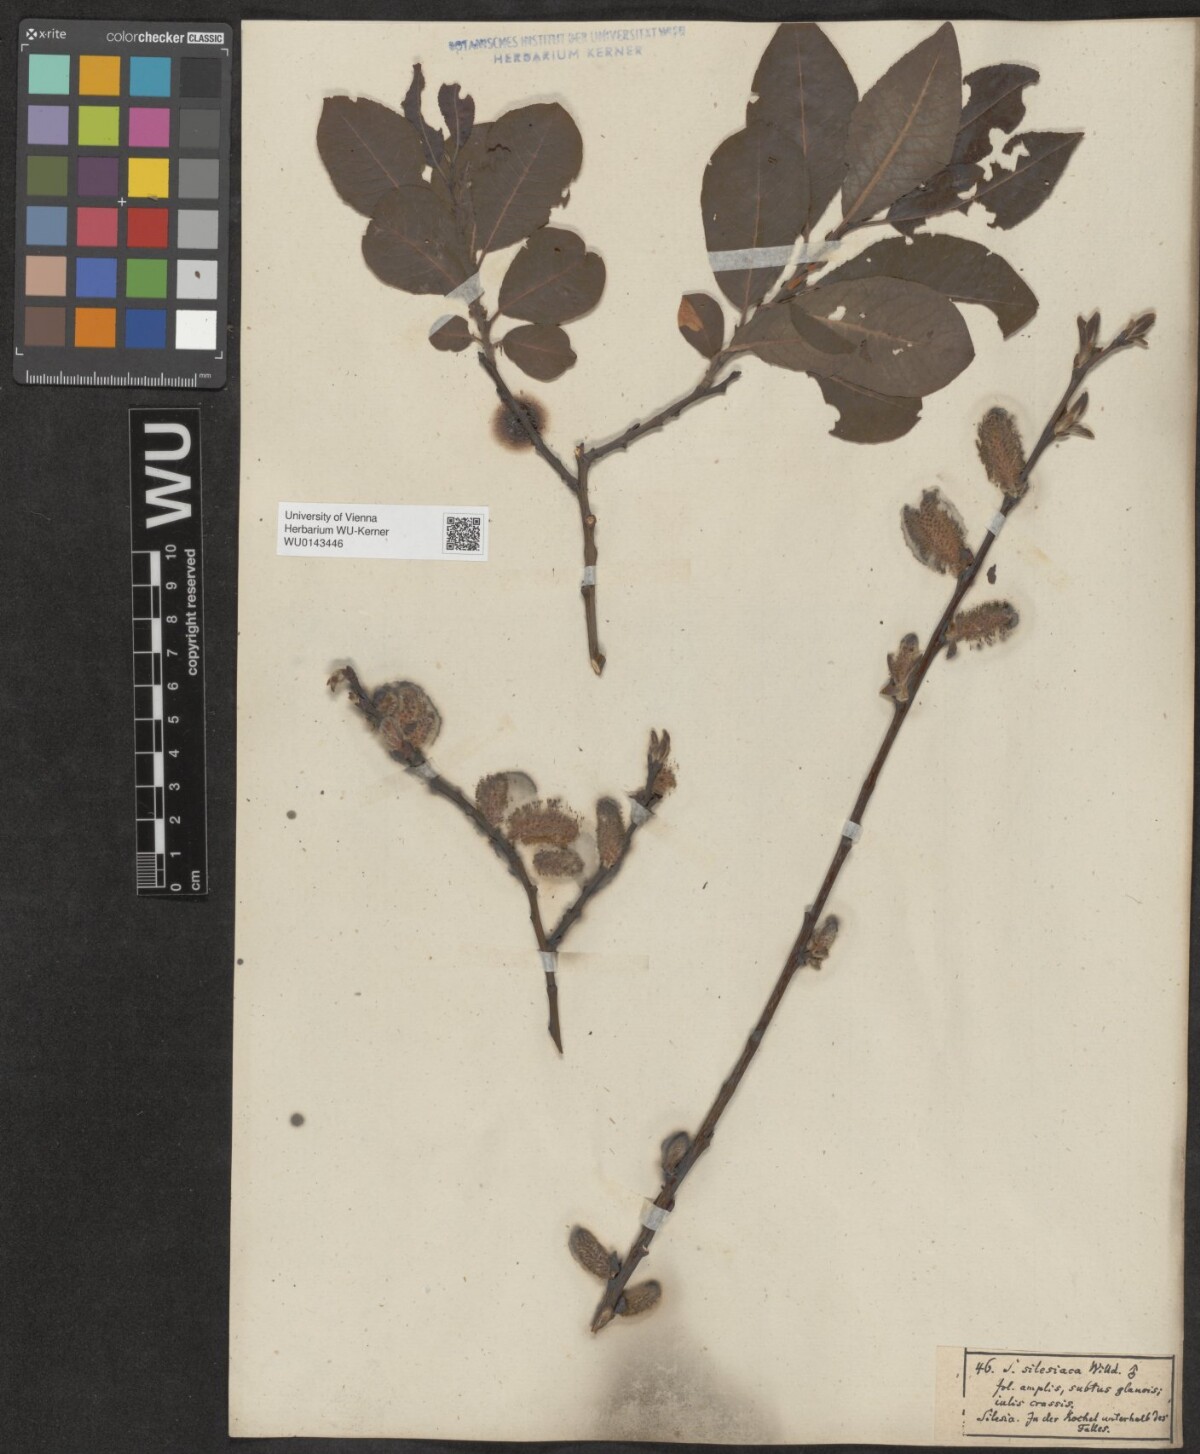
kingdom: Plantae
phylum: Tracheophyta
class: Magnoliopsida
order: Malpighiales
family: Salicaceae
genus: Salix
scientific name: Salix silesiaca
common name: Silesian willow
